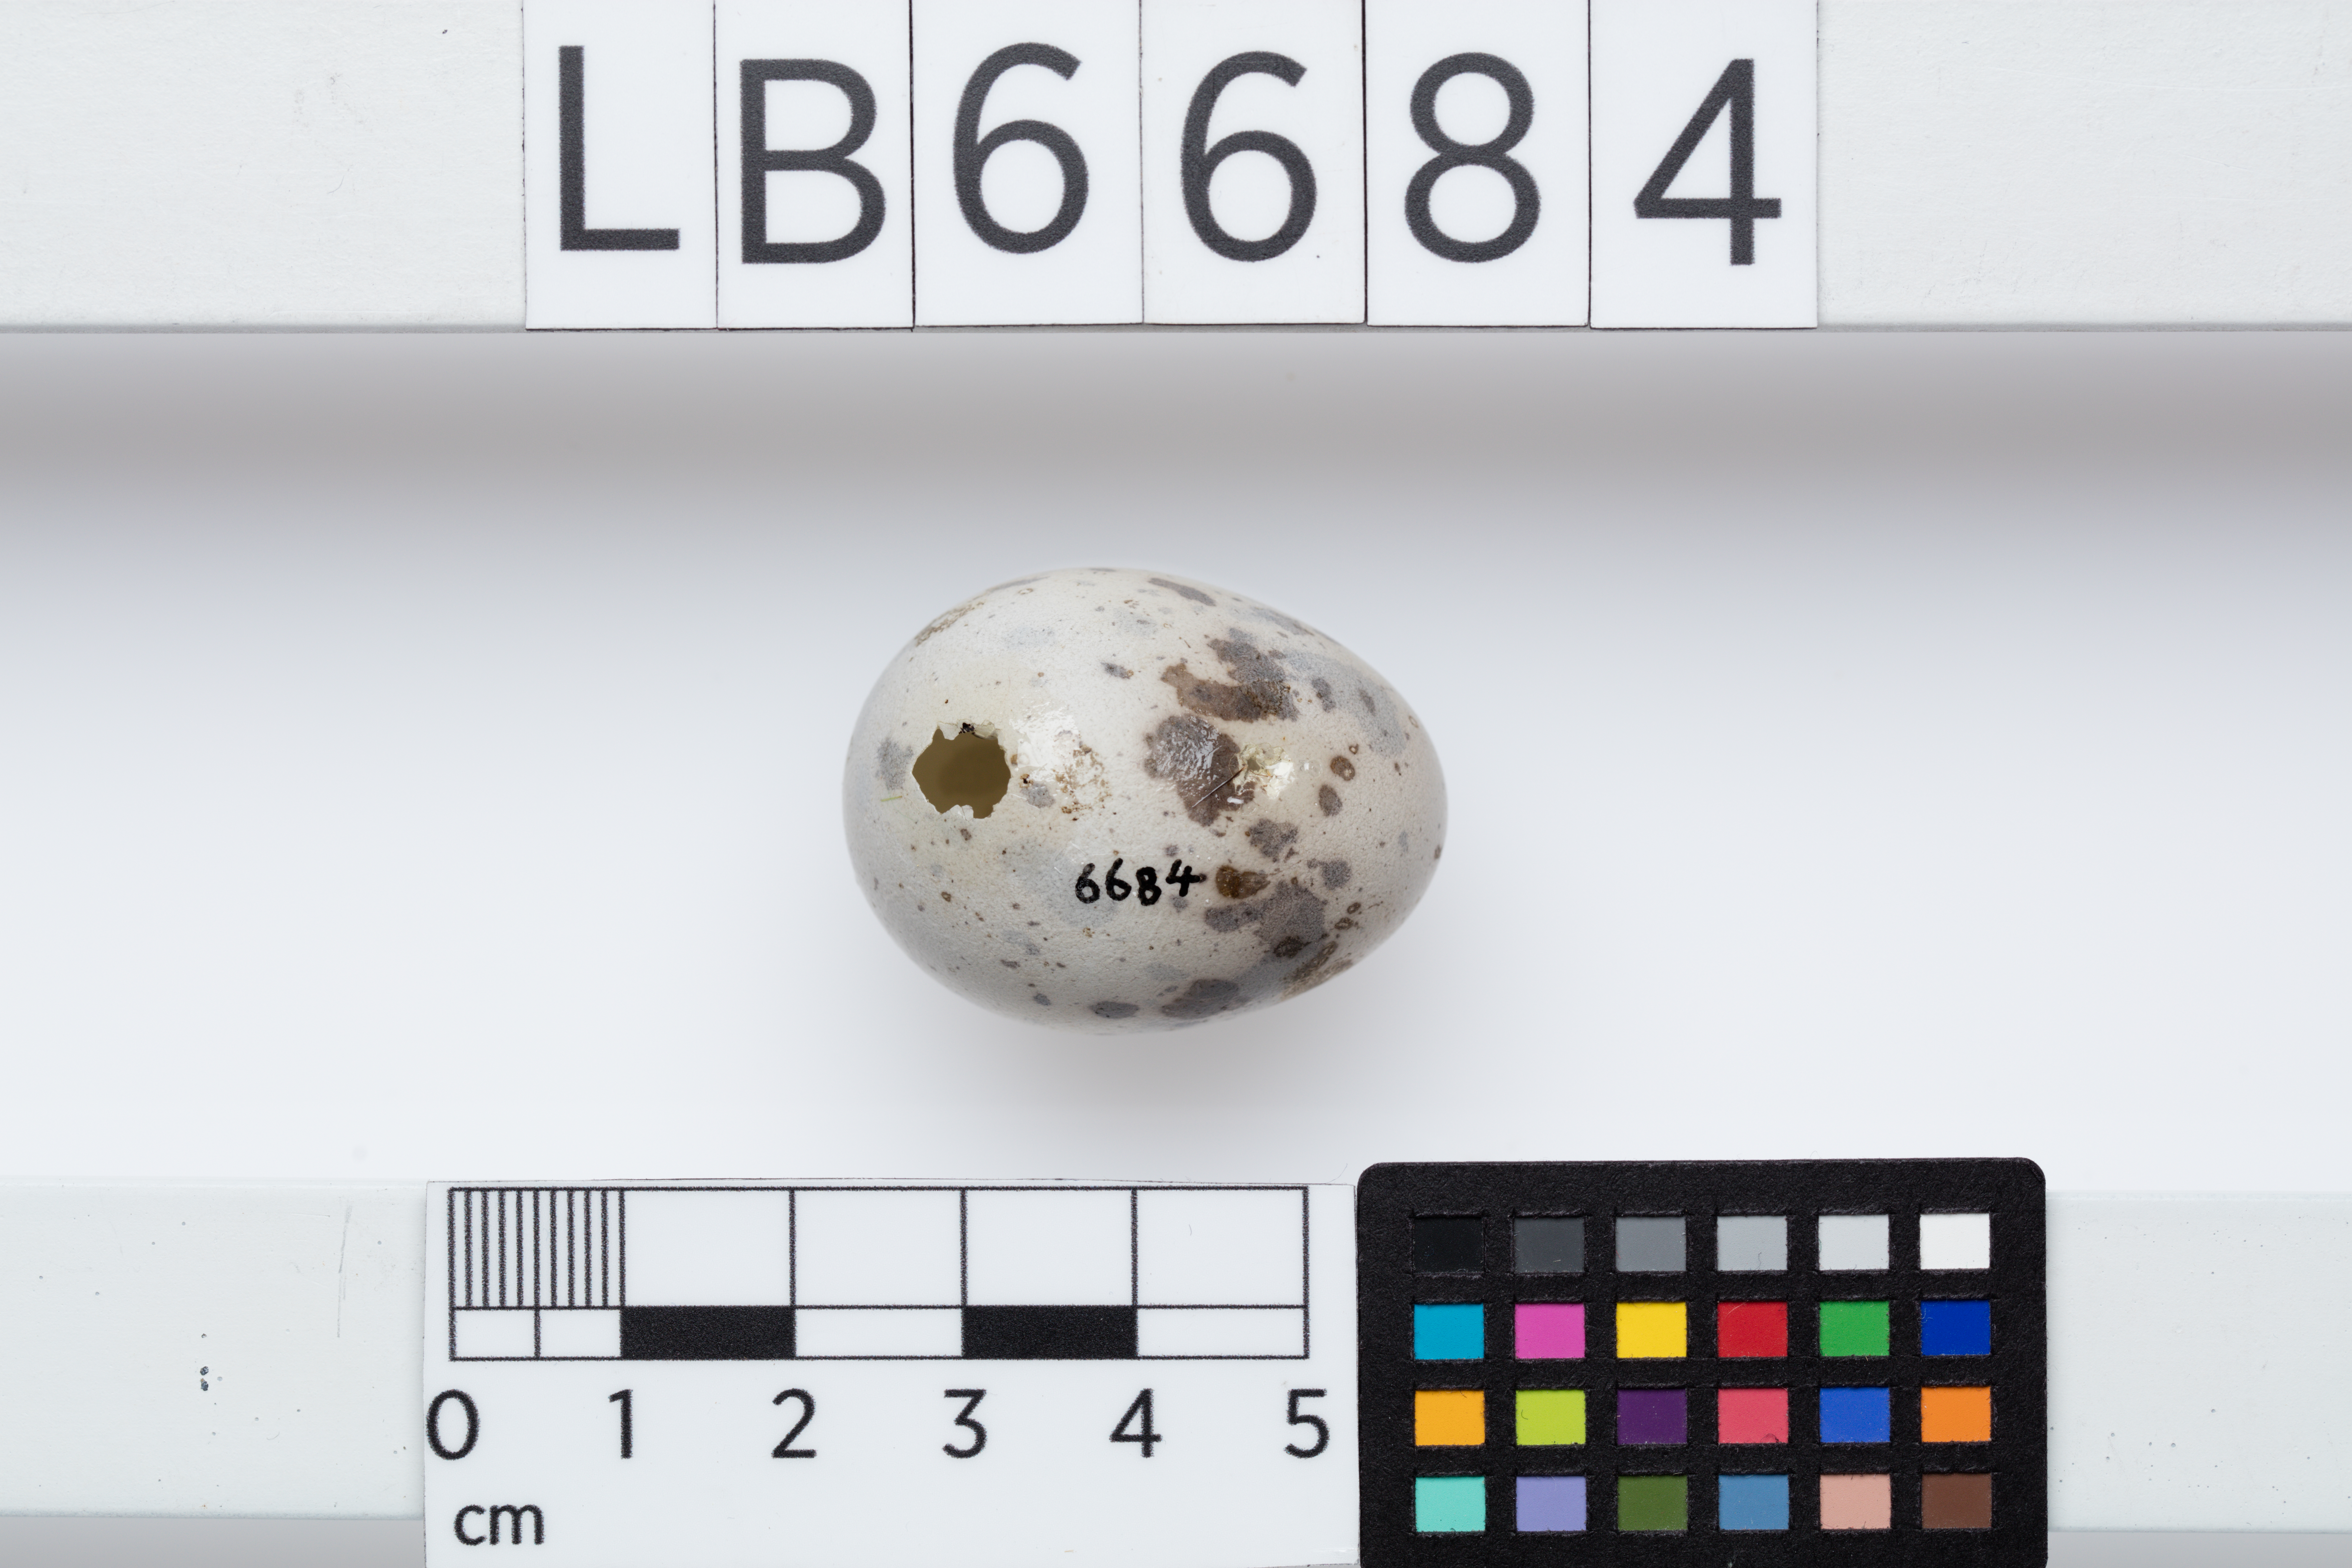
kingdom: Animalia
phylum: Chordata
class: Aves
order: Passeriformes
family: Callaeatidae
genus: Callaeas
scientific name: Callaeas cinereus
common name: South island kokako
